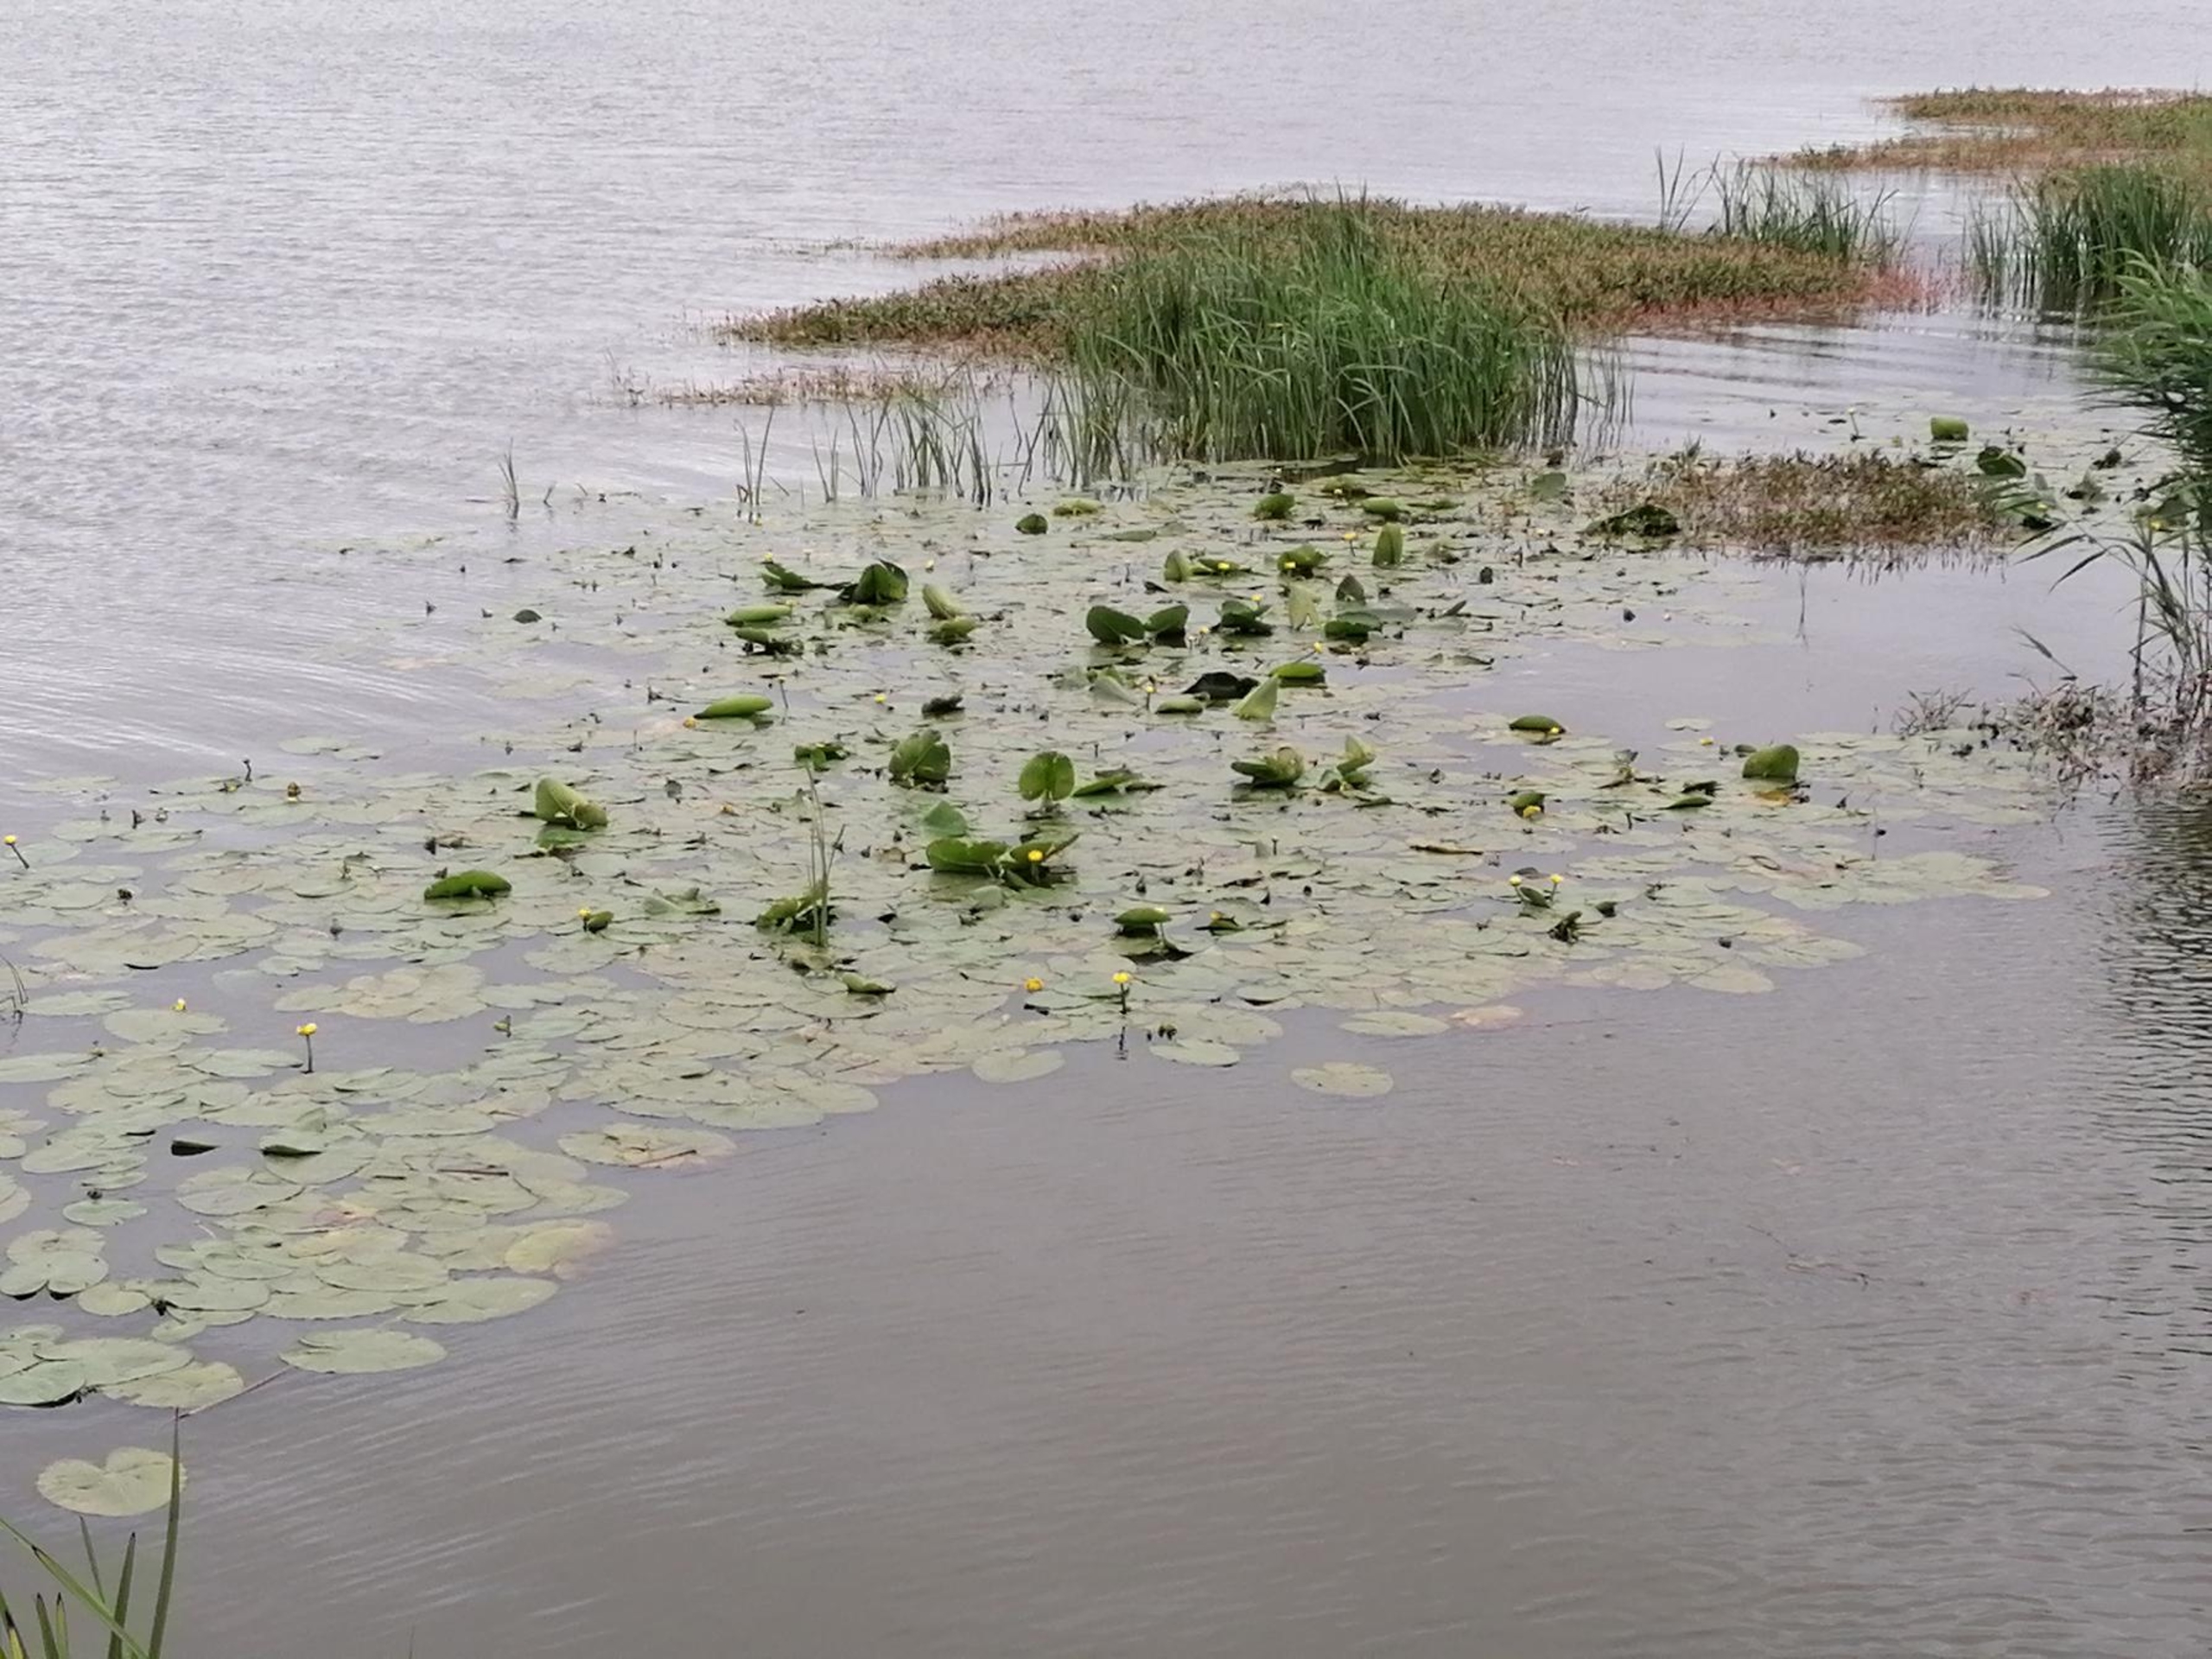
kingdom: Plantae
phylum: Tracheophyta
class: Magnoliopsida
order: Nymphaeales
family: Nymphaeaceae
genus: Nuphar
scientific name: Nuphar lutea
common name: Gul åkande
